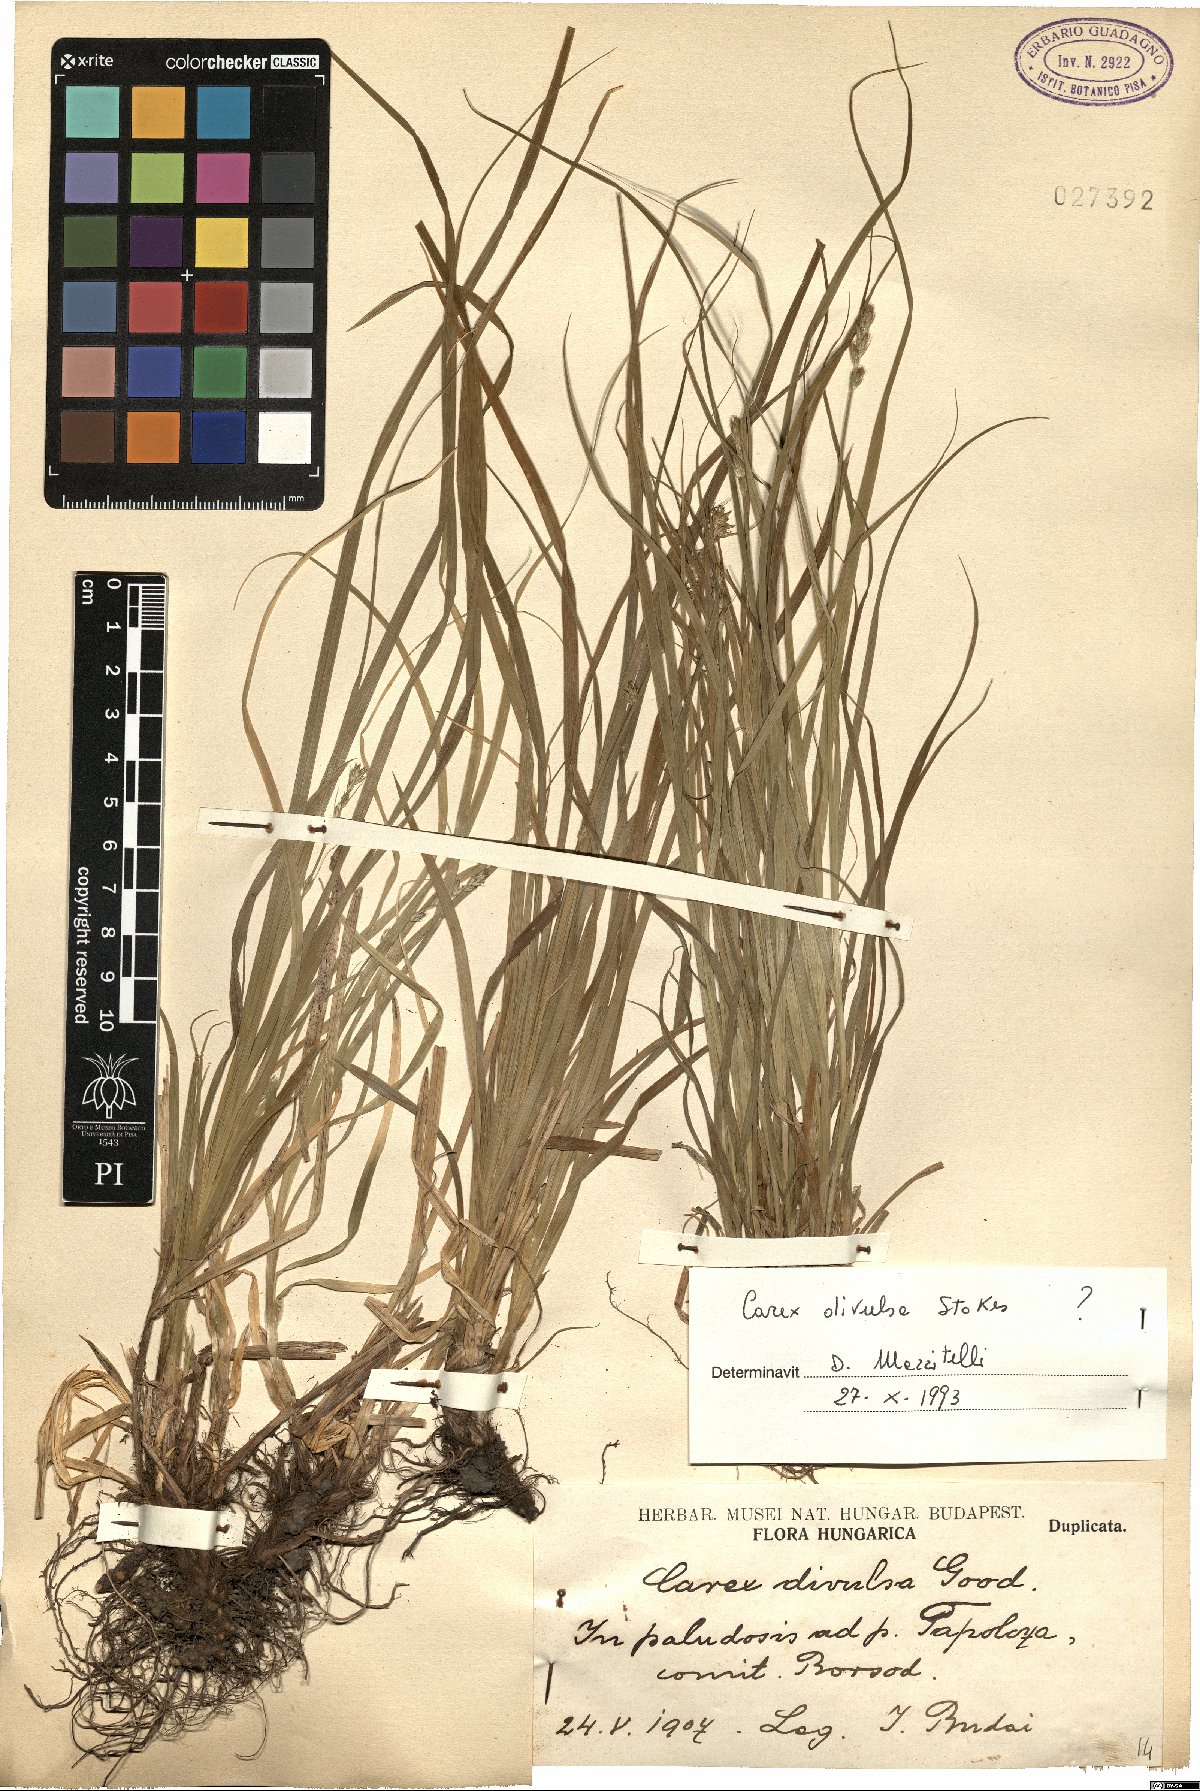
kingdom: Plantae
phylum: Tracheophyta
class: Liliopsida
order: Poales
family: Cyperaceae
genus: Carex
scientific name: Carex divulsa
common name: Grassland sedge
